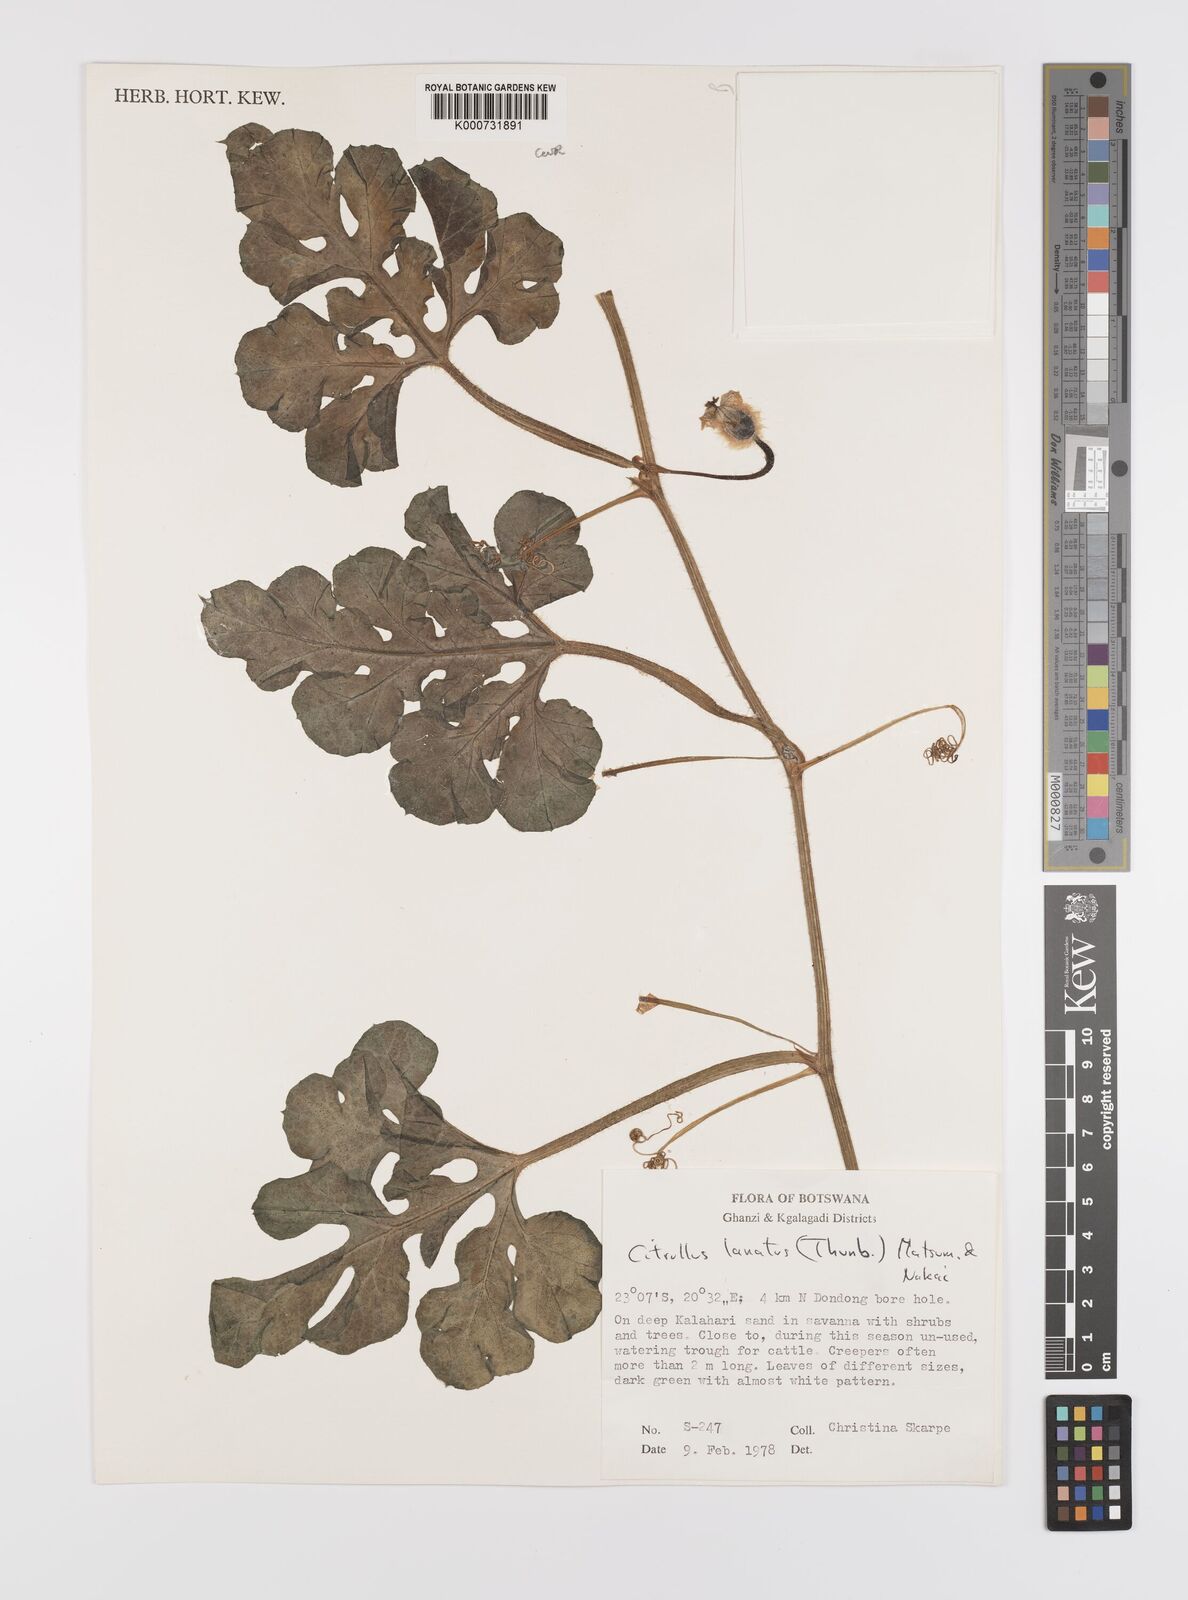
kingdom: Plantae
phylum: Tracheophyta
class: Magnoliopsida
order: Cucurbitales
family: Cucurbitaceae
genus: Citrullus
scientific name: Citrullus lanatus
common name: Watermelon
